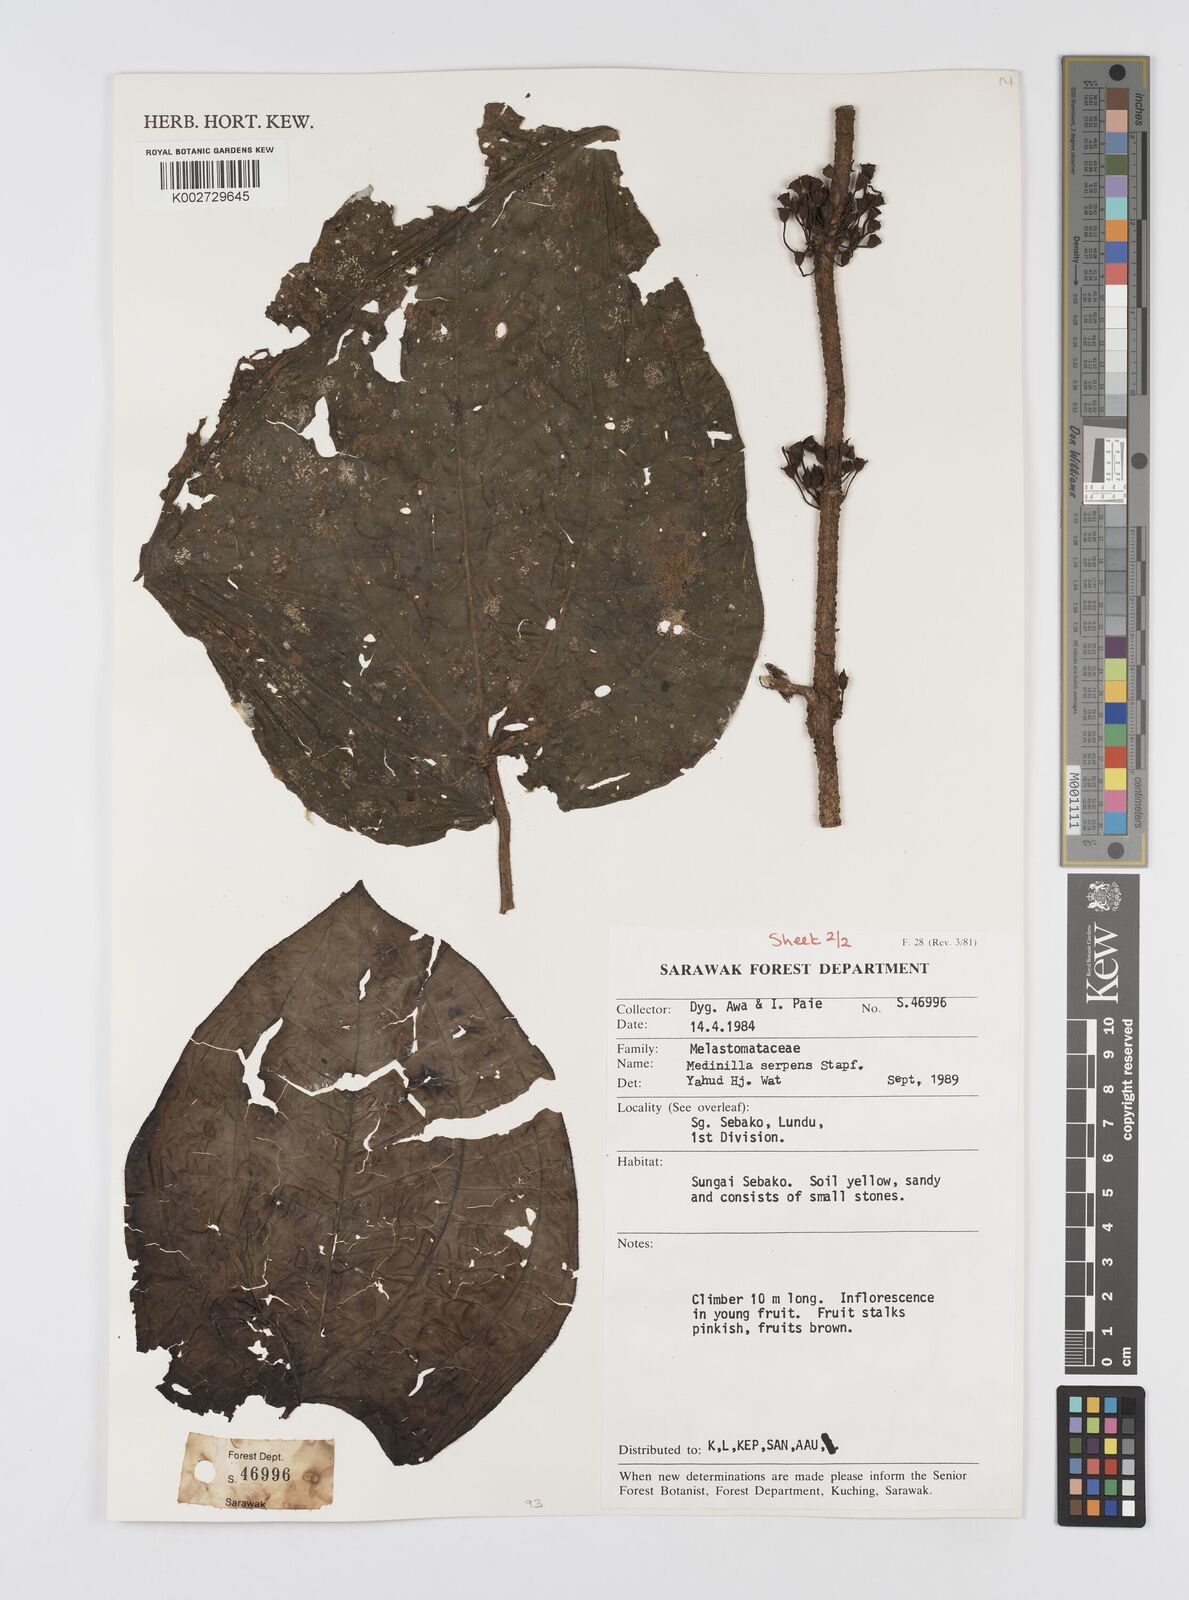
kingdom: Plantae
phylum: Tracheophyta
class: Magnoliopsida
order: Myrtales
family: Melastomataceae
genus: Heteroblemma
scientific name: Heteroblemma serpens
